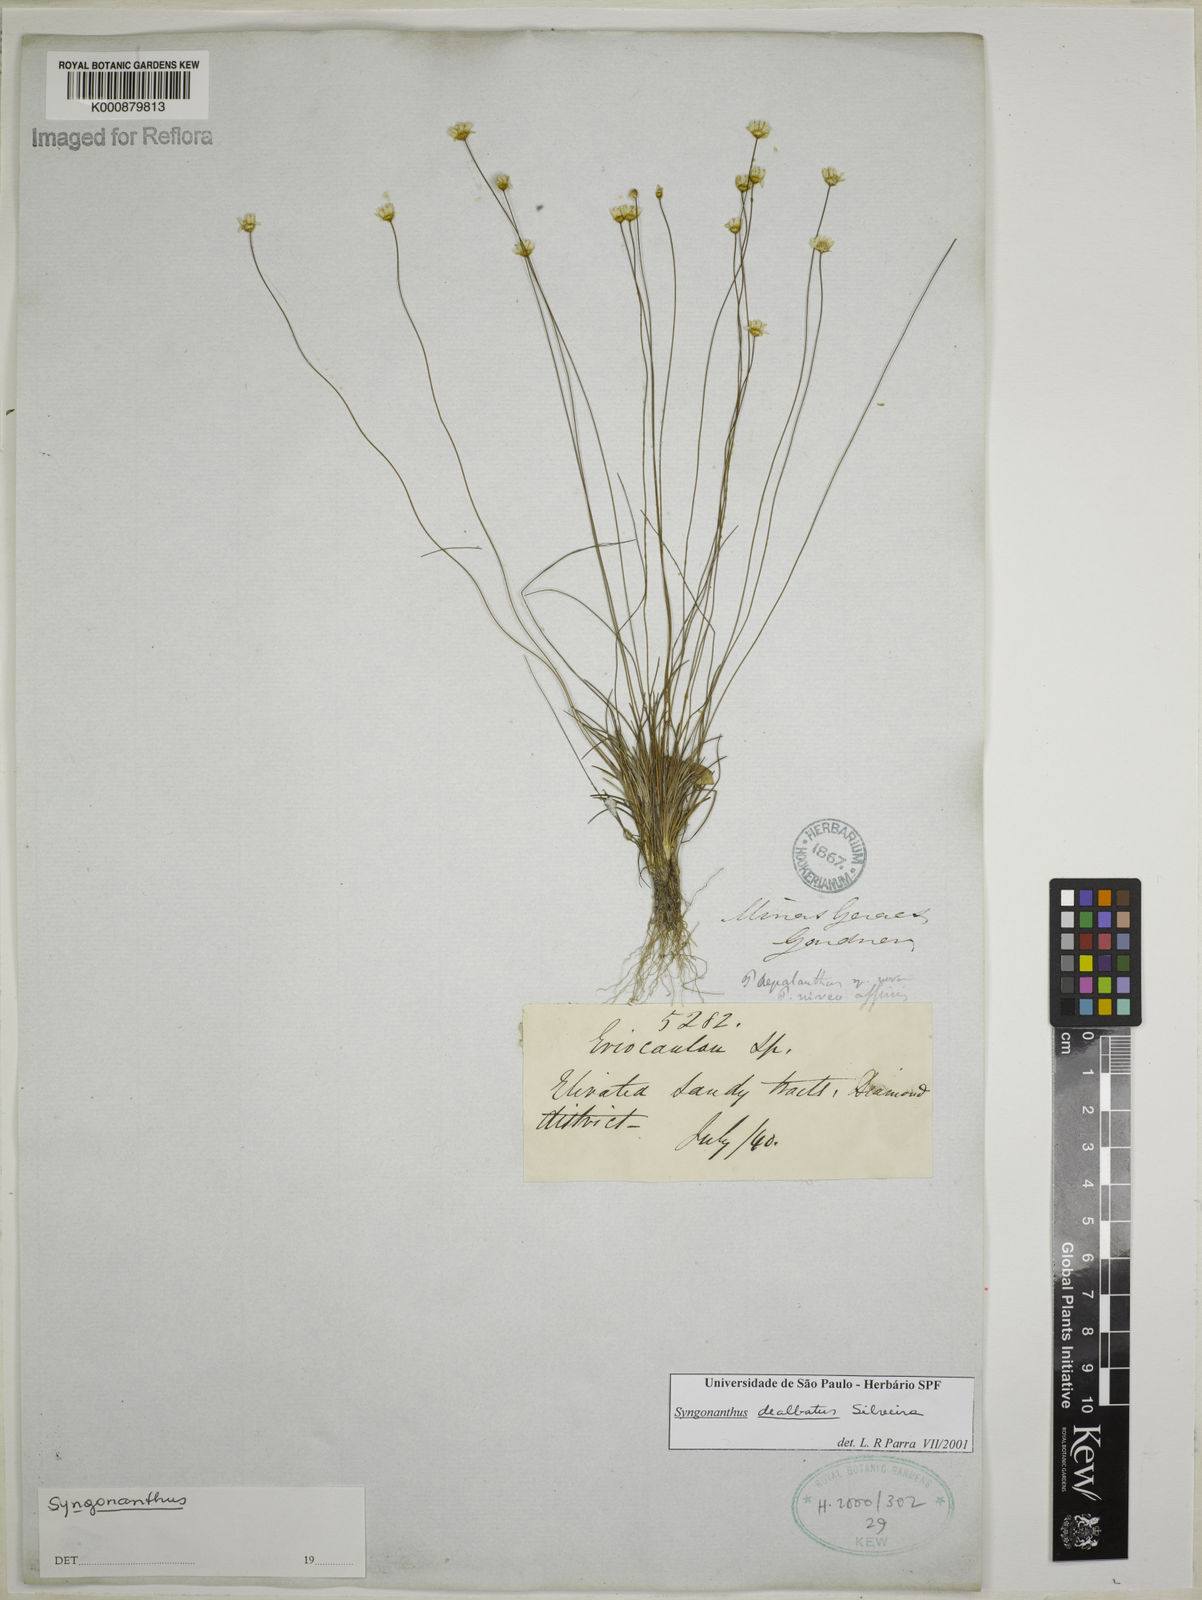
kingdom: Plantae
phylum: Tracheophyta
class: Liliopsida
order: Poales
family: Eriocaulaceae
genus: Comanthera
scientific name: Comanthera dealbata
